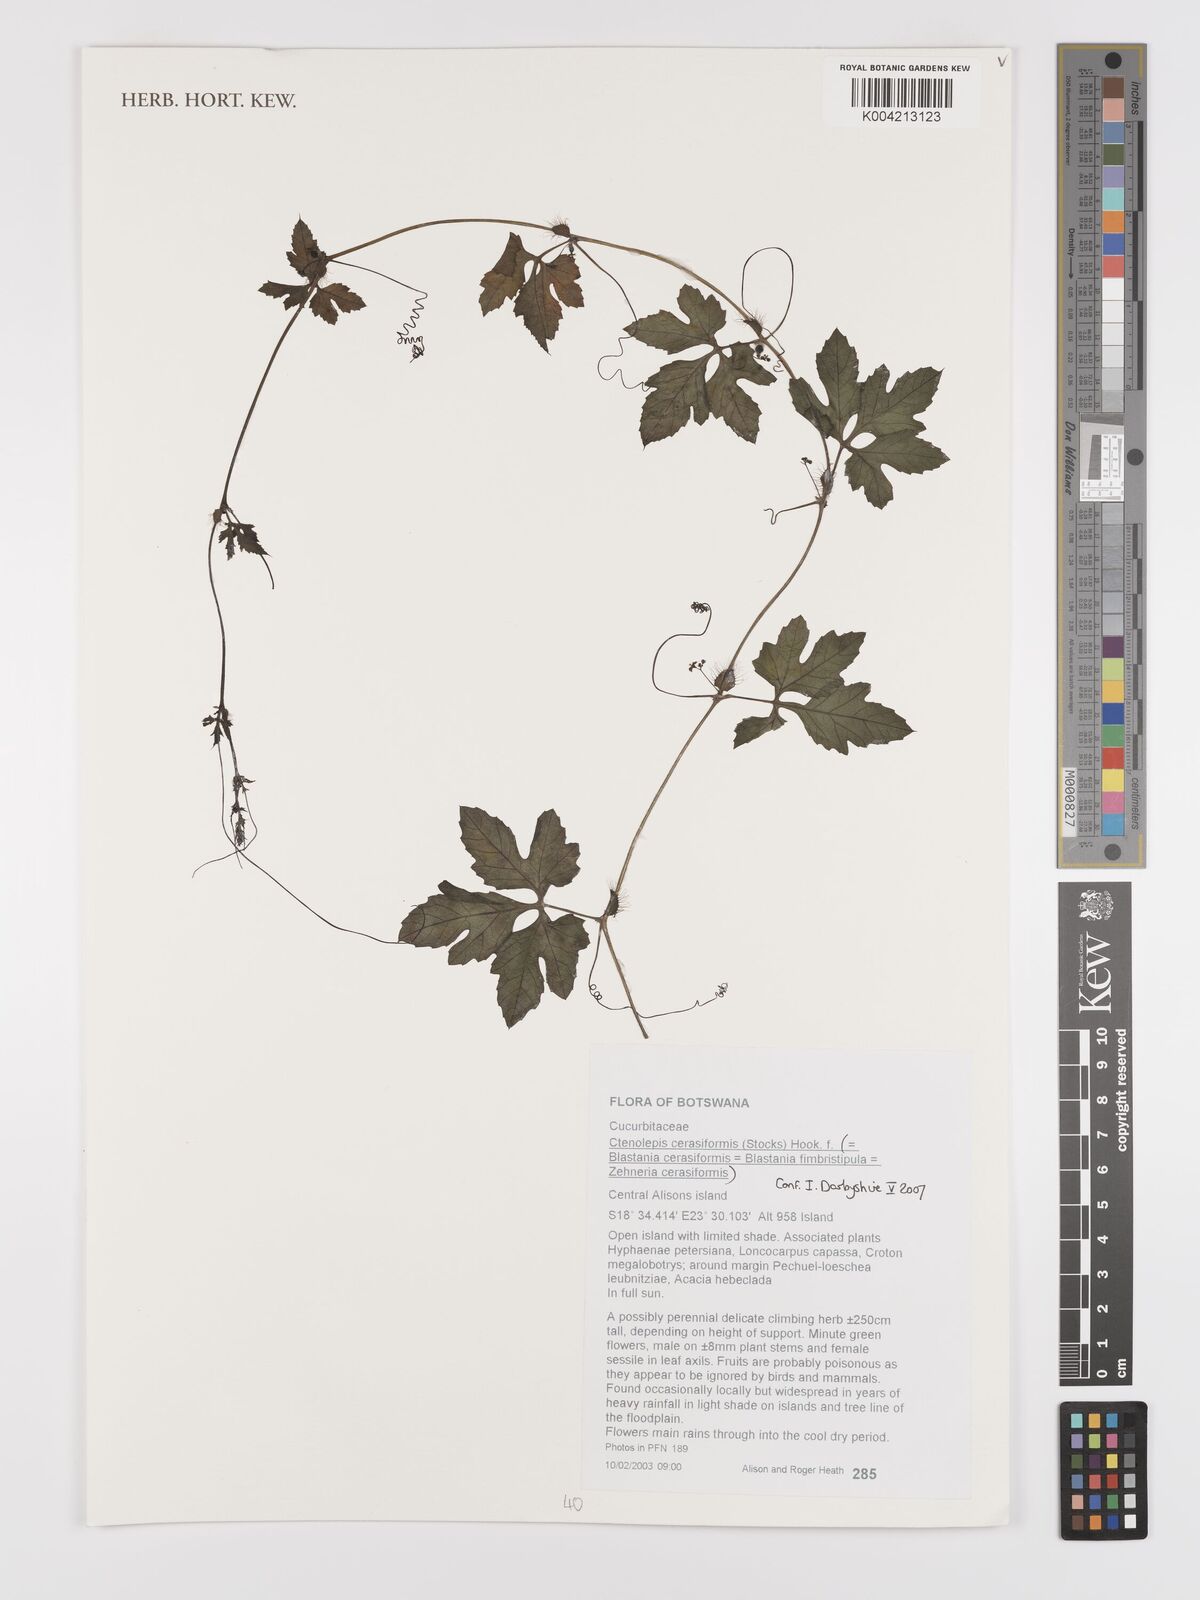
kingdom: Plantae
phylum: Tracheophyta
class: Magnoliopsida
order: Cucurbitales
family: Cucurbitaceae
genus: Blastania
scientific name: Blastania cerasiformis
